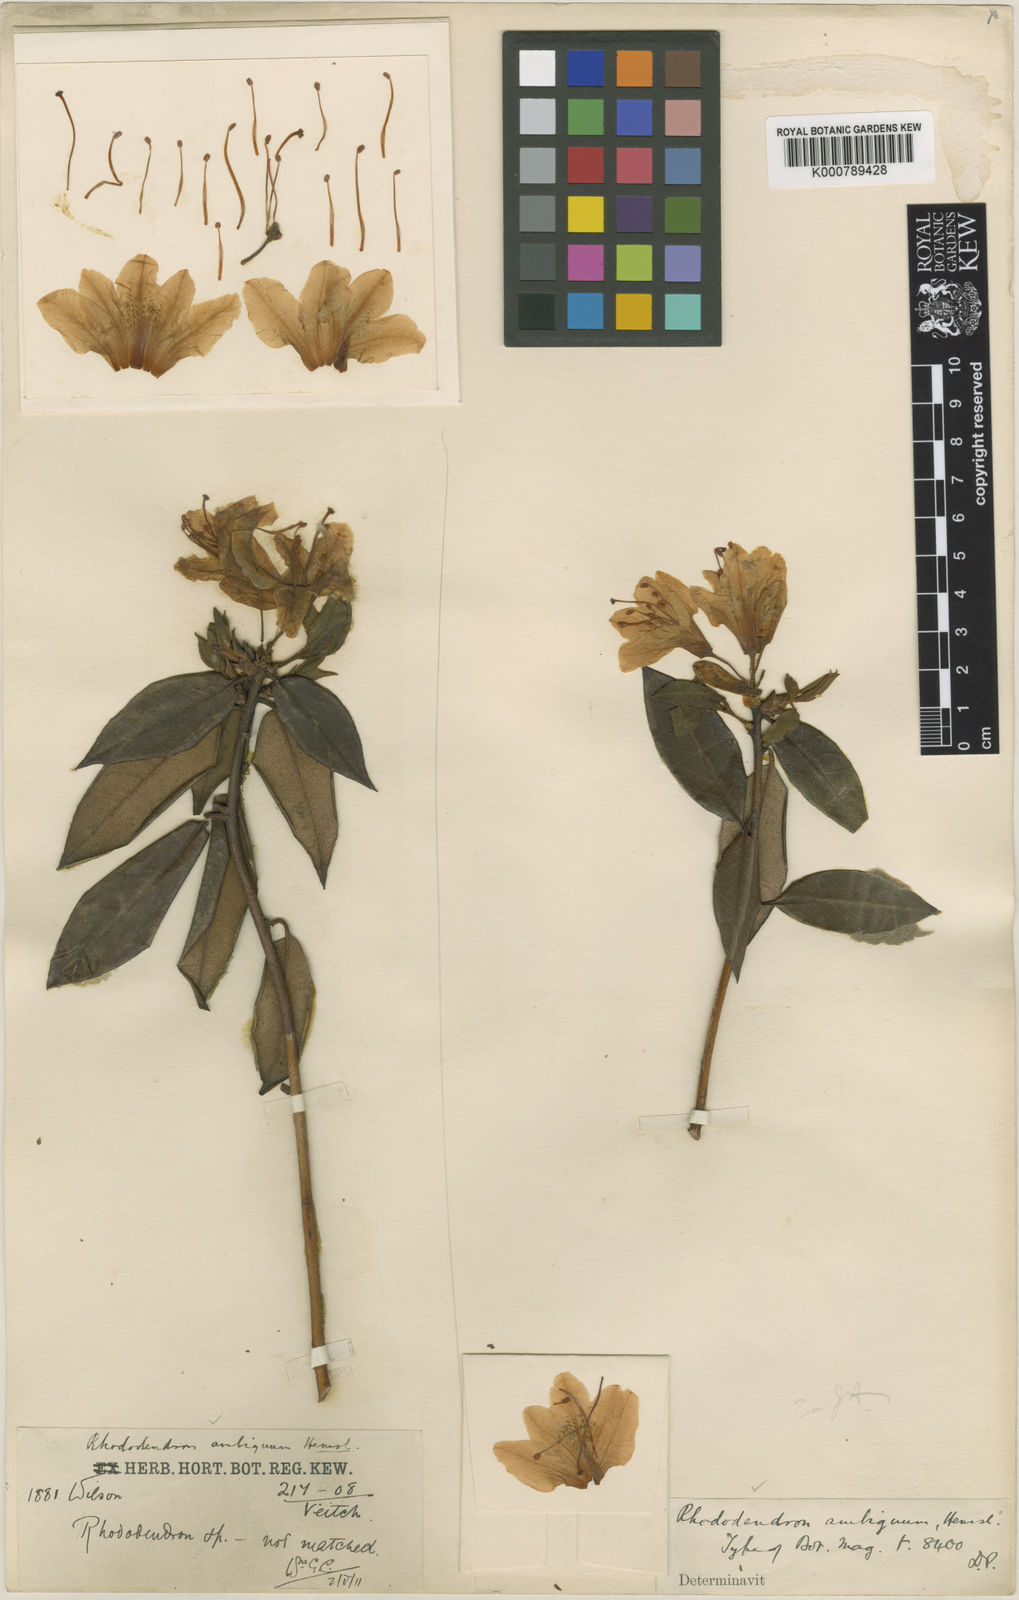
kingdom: Plantae
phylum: Tracheophyta
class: Magnoliopsida
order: Ericales
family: Ericaceae
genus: Rhododendron
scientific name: Rhododendron ambiguum
